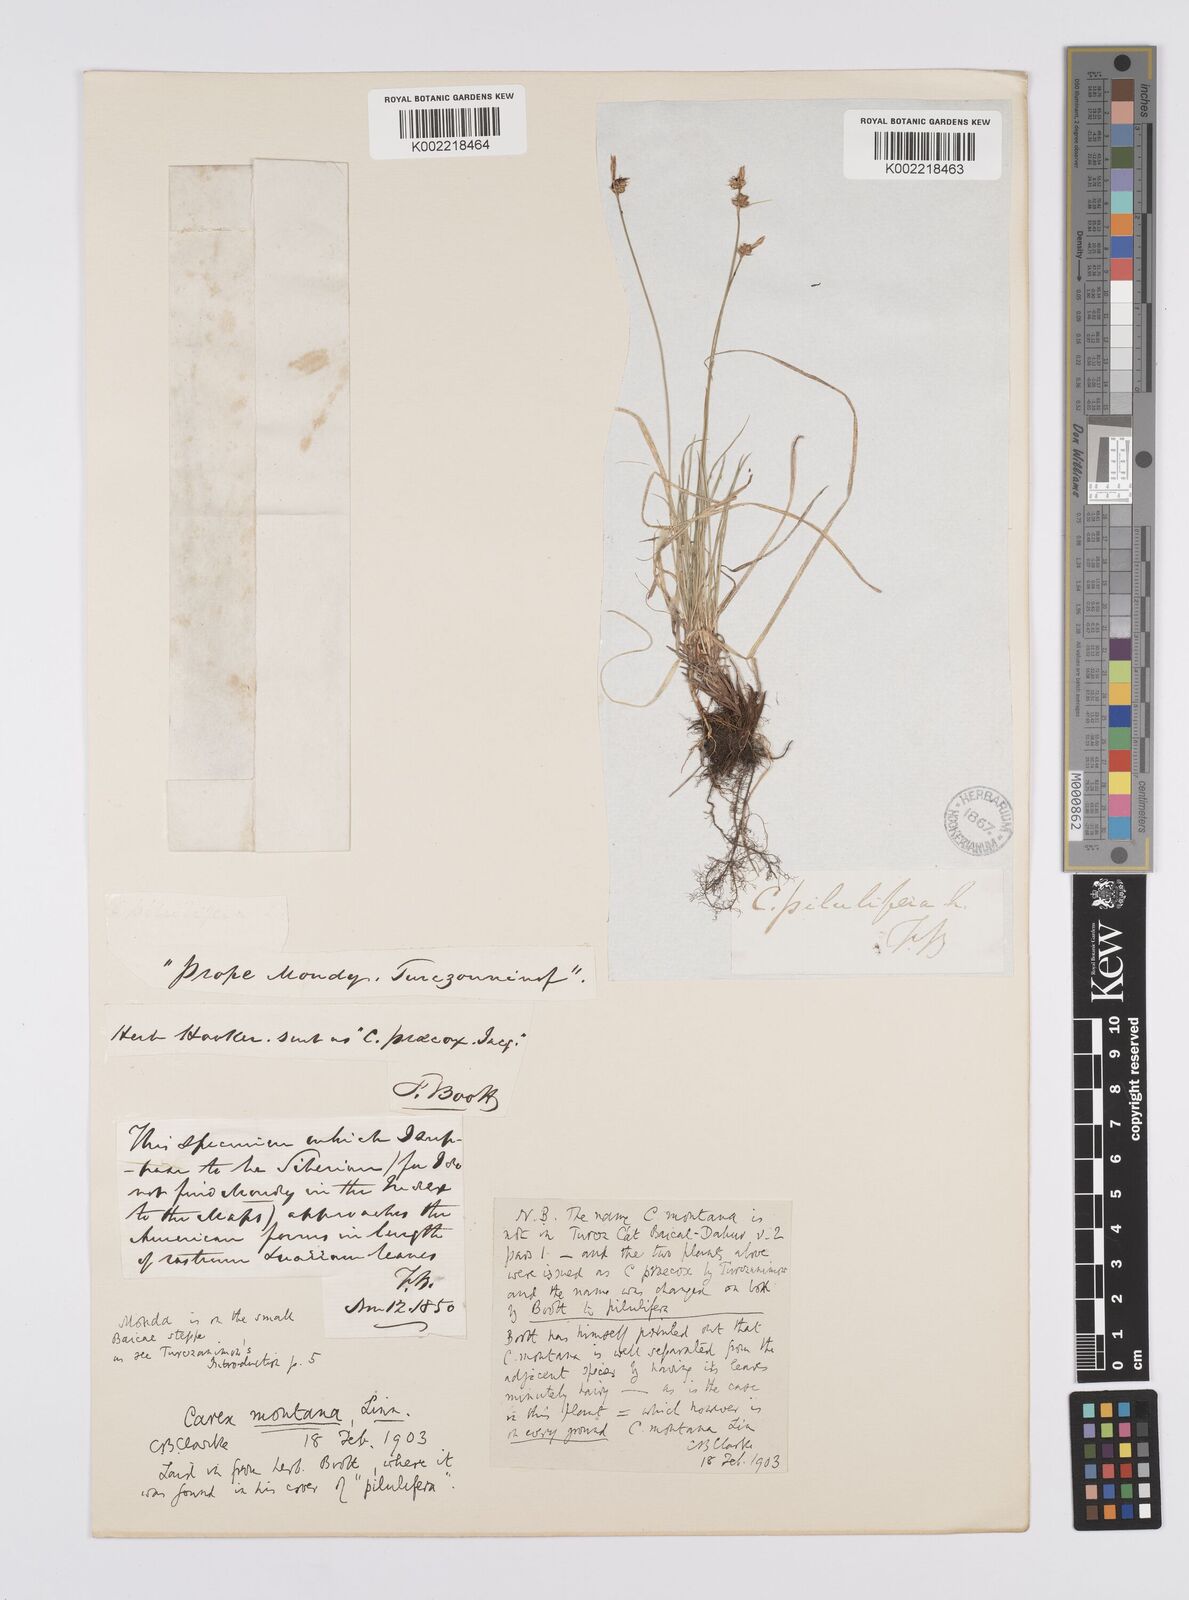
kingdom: Plantae
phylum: Tracheophyta
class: Liliopsida
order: Poales
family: Cyperaceae
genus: Carex
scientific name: Carex montana
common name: Soft-leaved sedge
